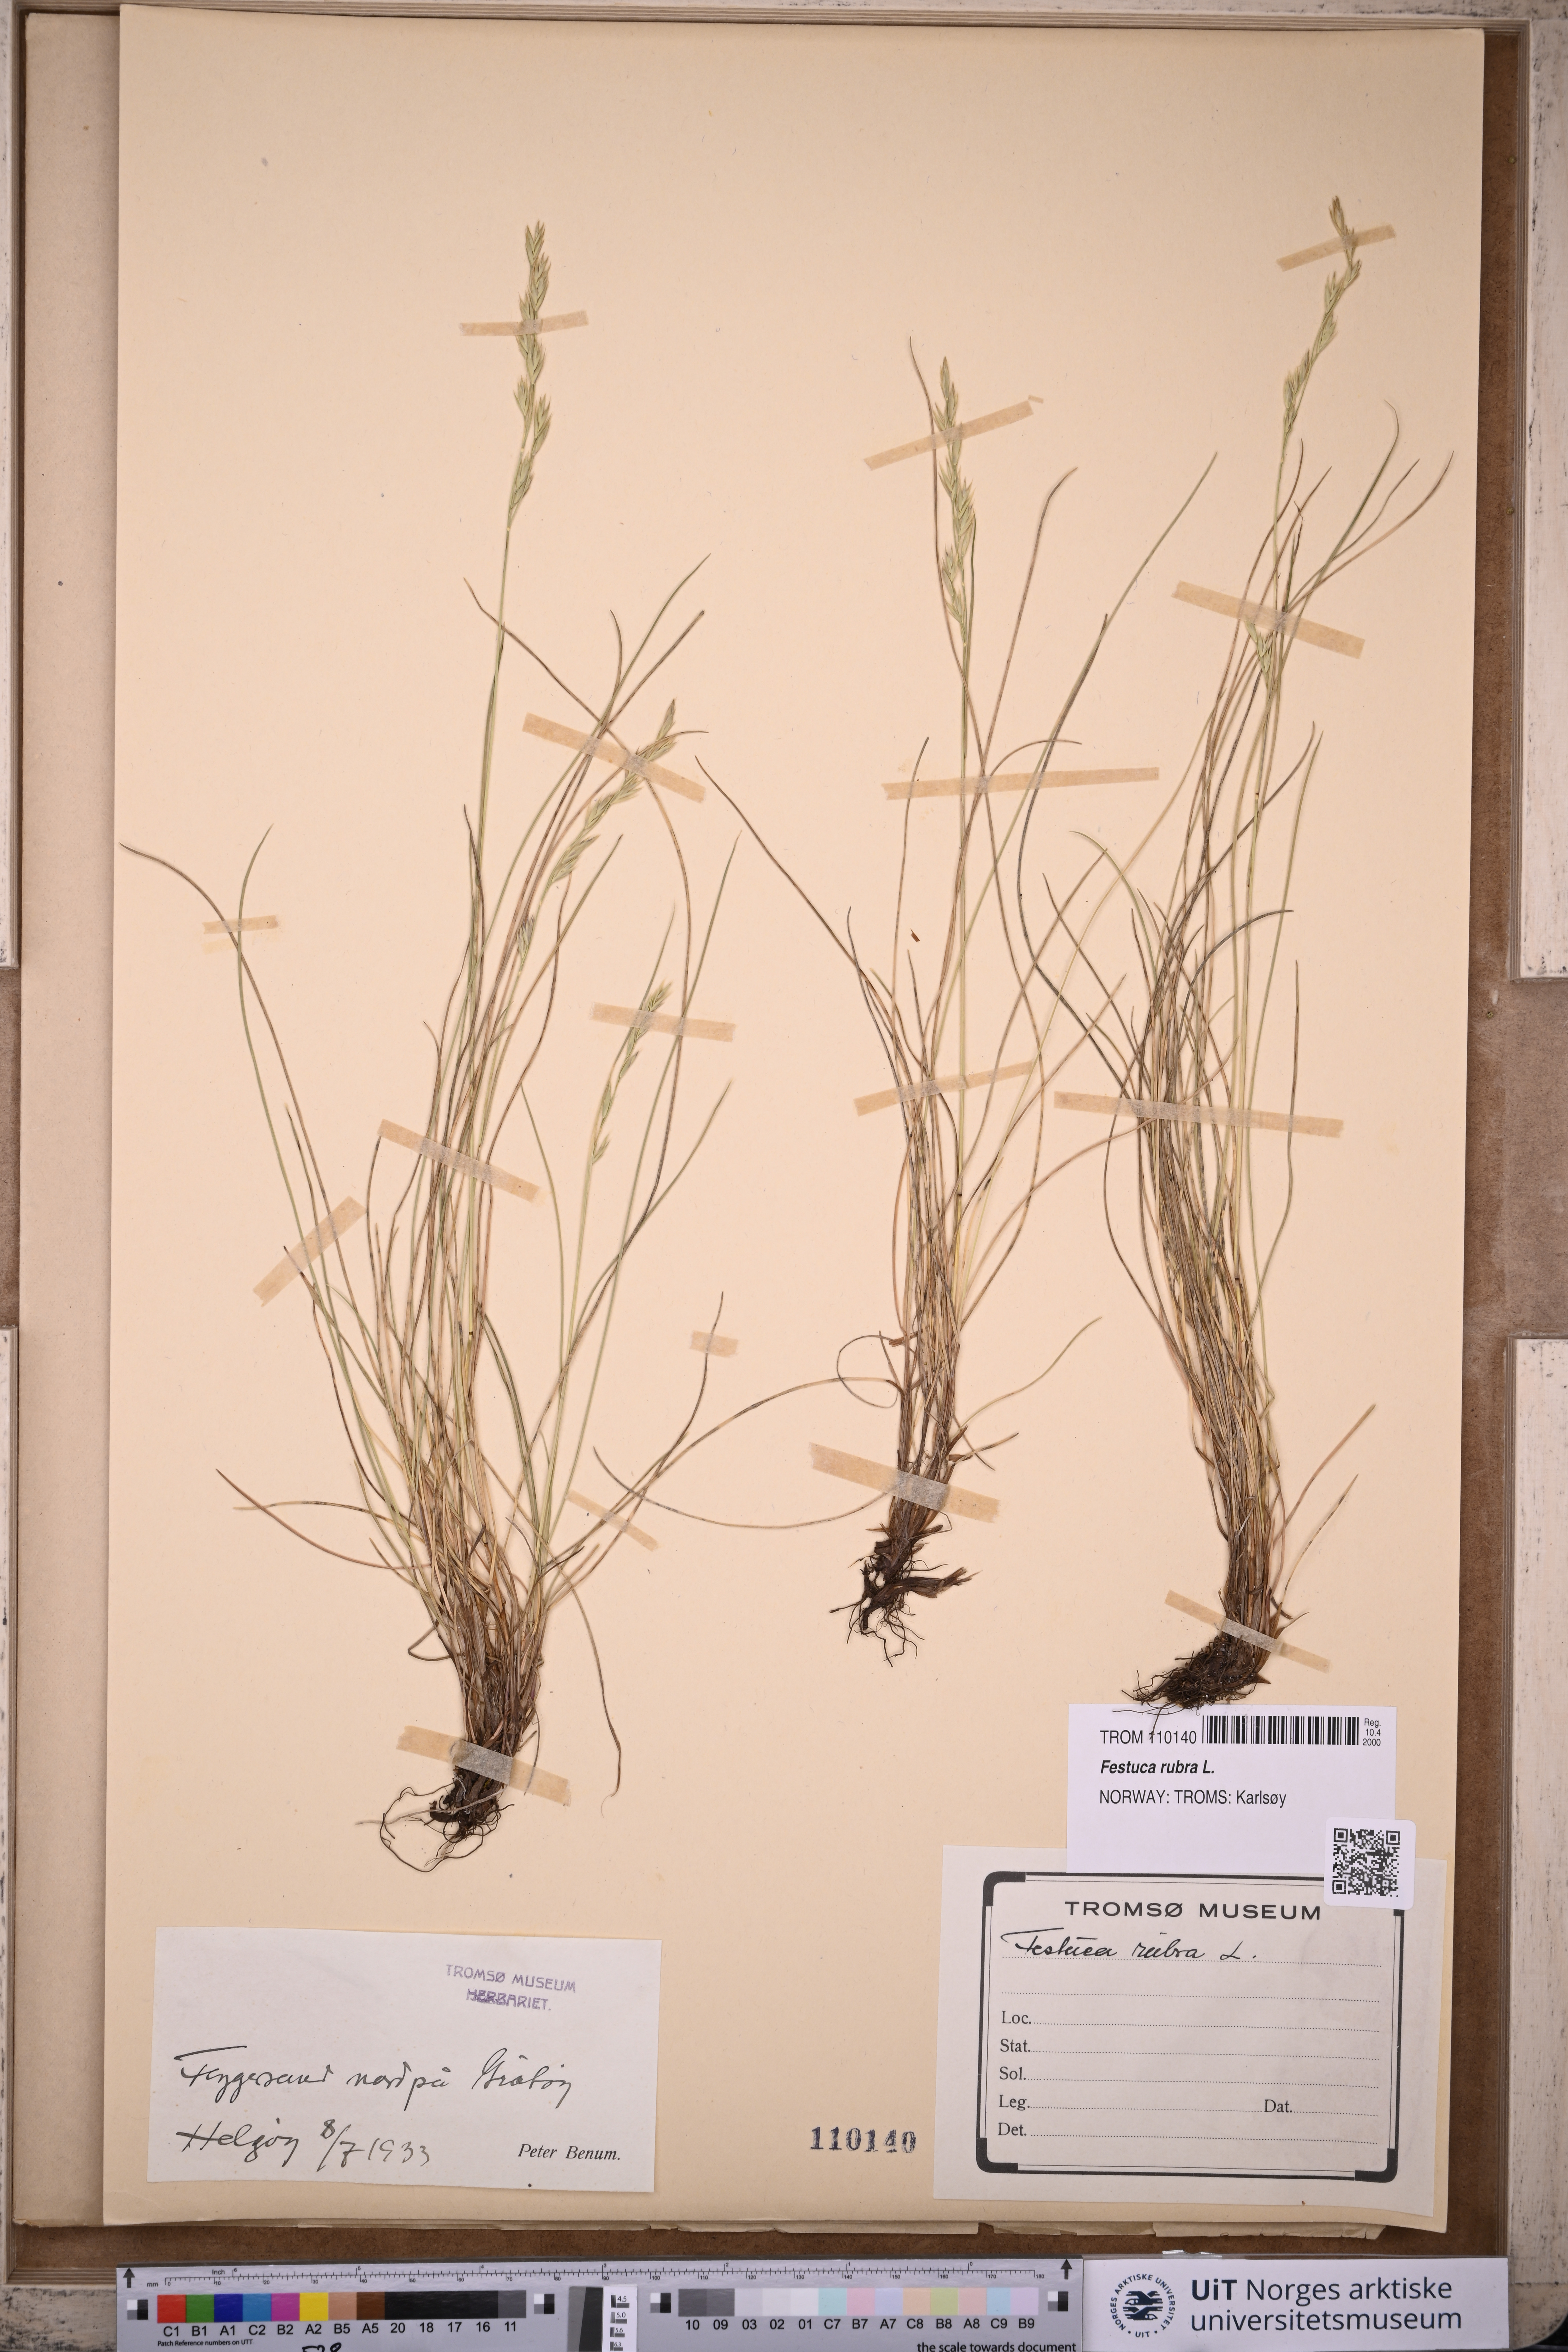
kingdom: Plantae
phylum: Tracheophyta
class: Liliopsida
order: Poales
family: Poaceae
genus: Festuca
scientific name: Festuca rubra
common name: Red fescue
